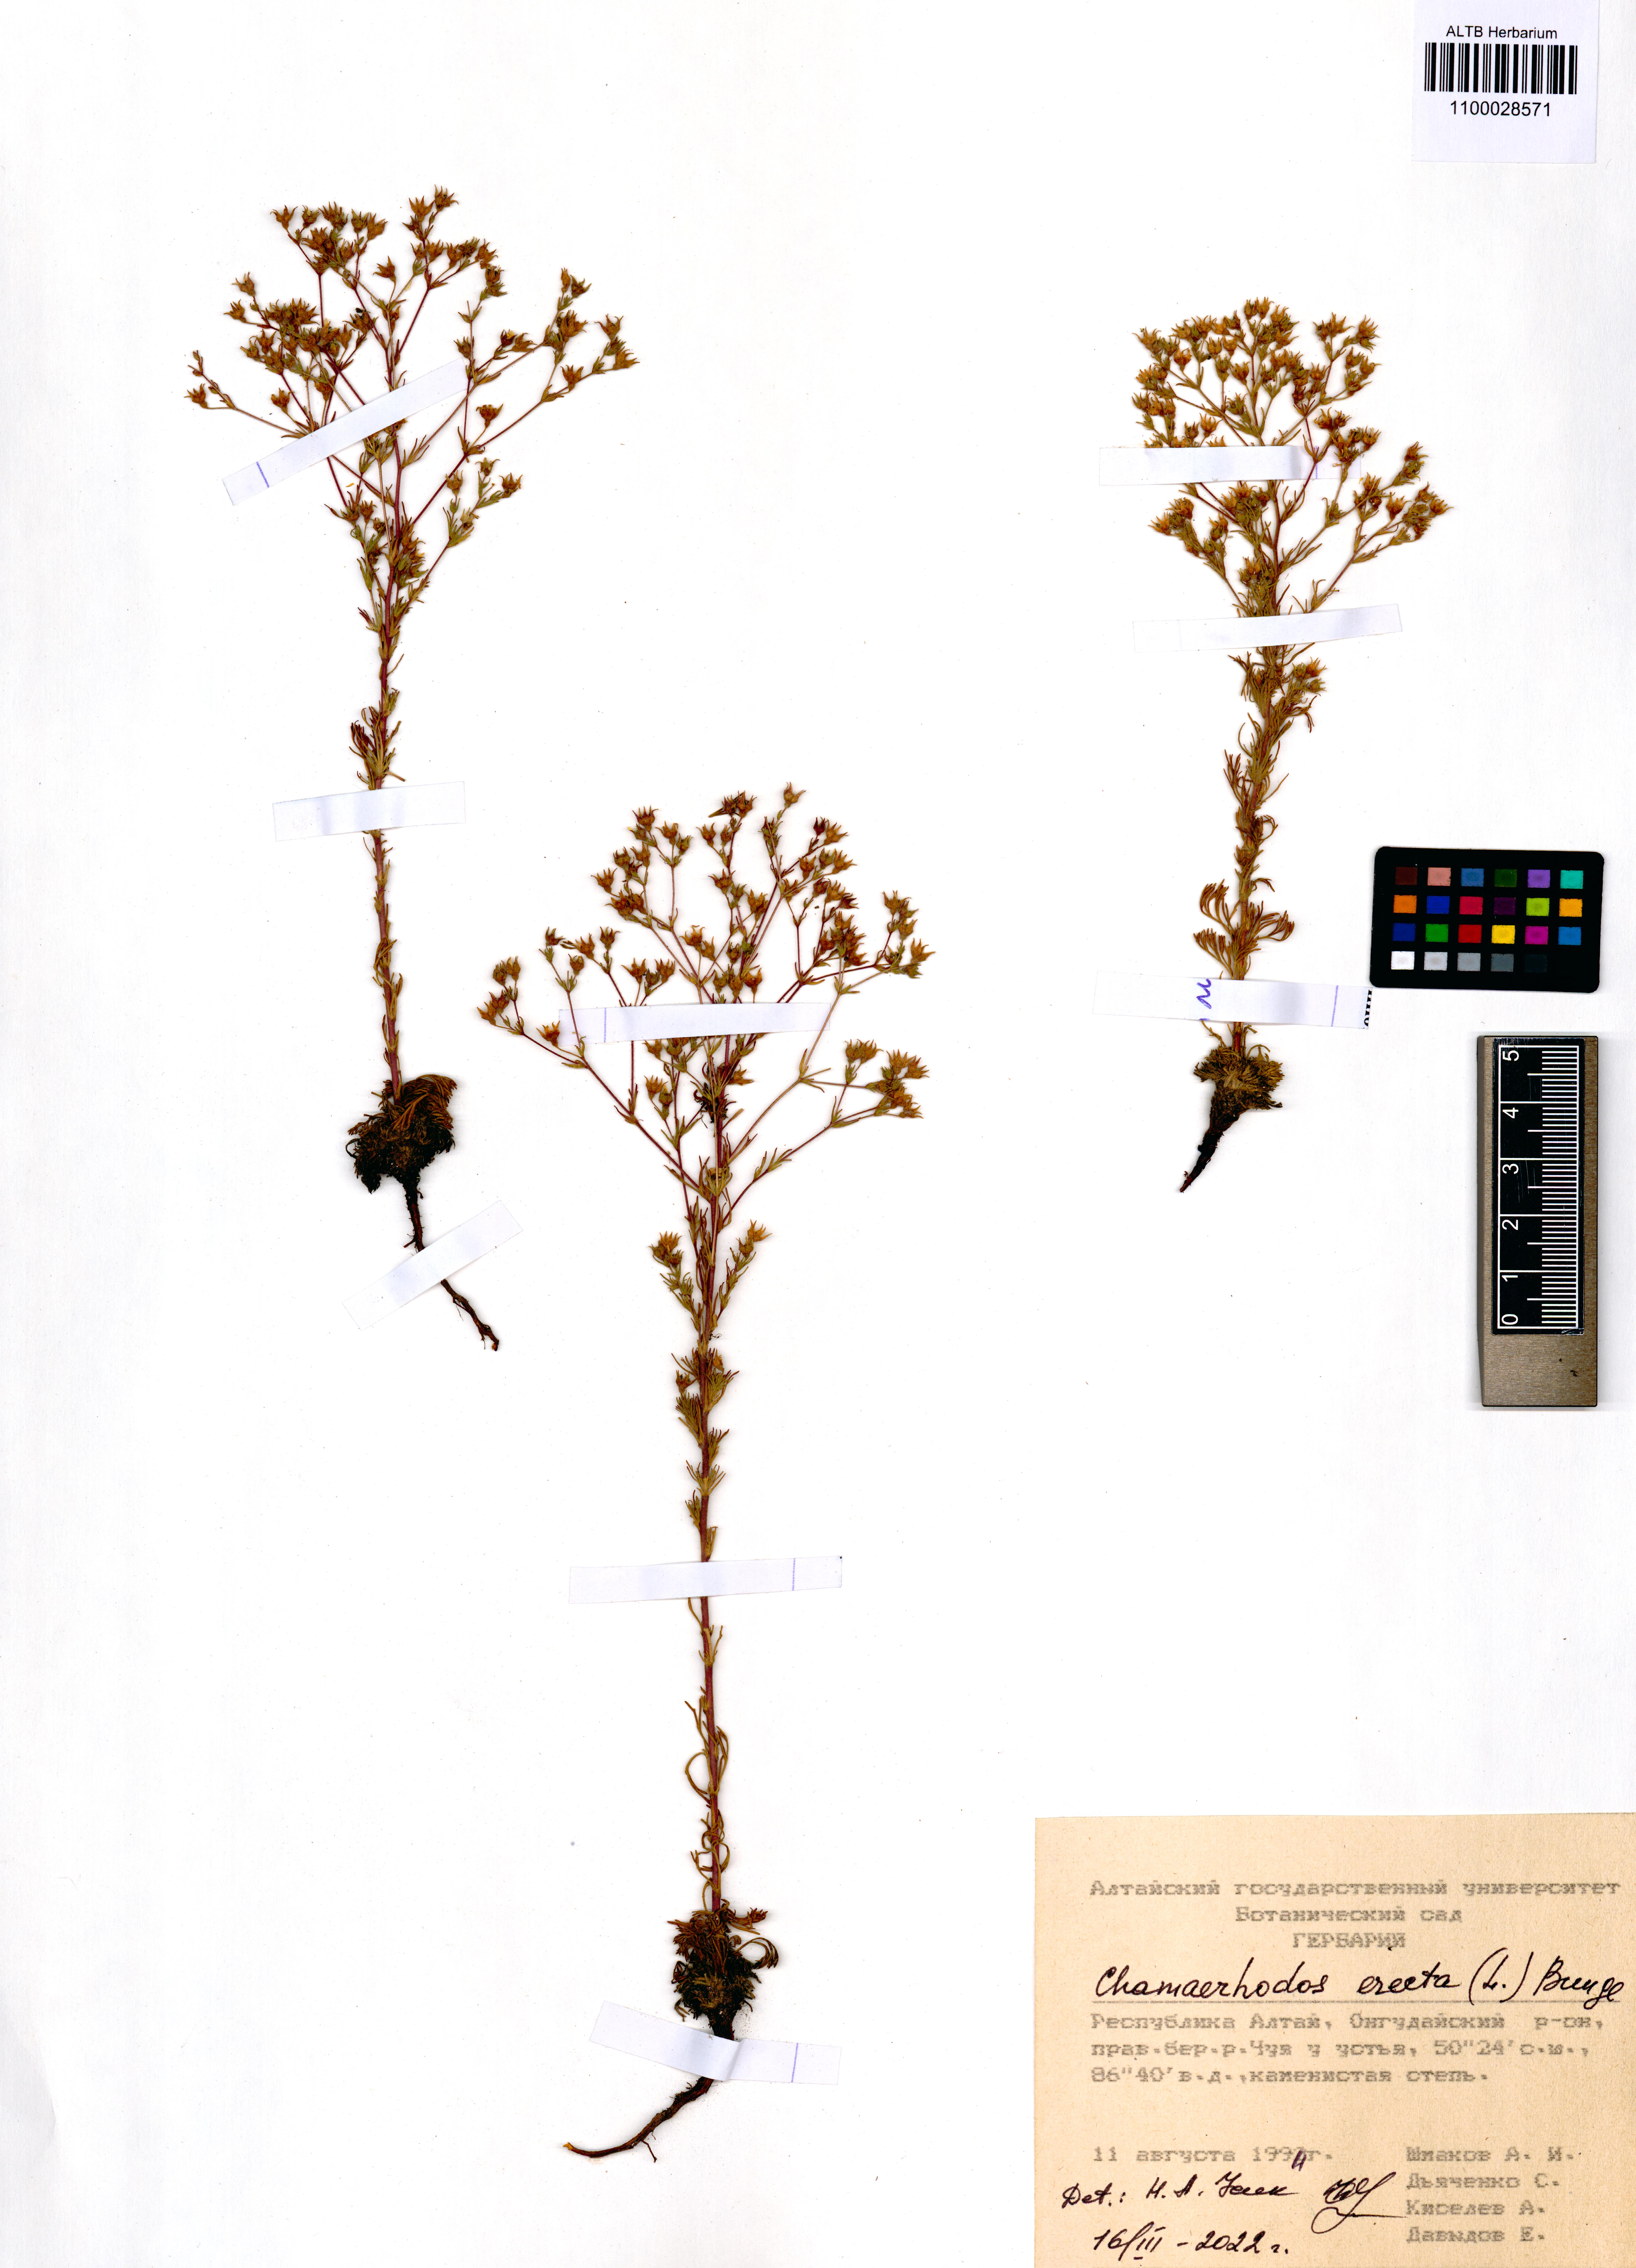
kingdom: Plantae
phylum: Tracheophyta
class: Magnoliopsida
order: Rosales
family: Rosaceae
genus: Chamaerhodos
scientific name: Chamaerhodos erecta
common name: American chamaerhodos
